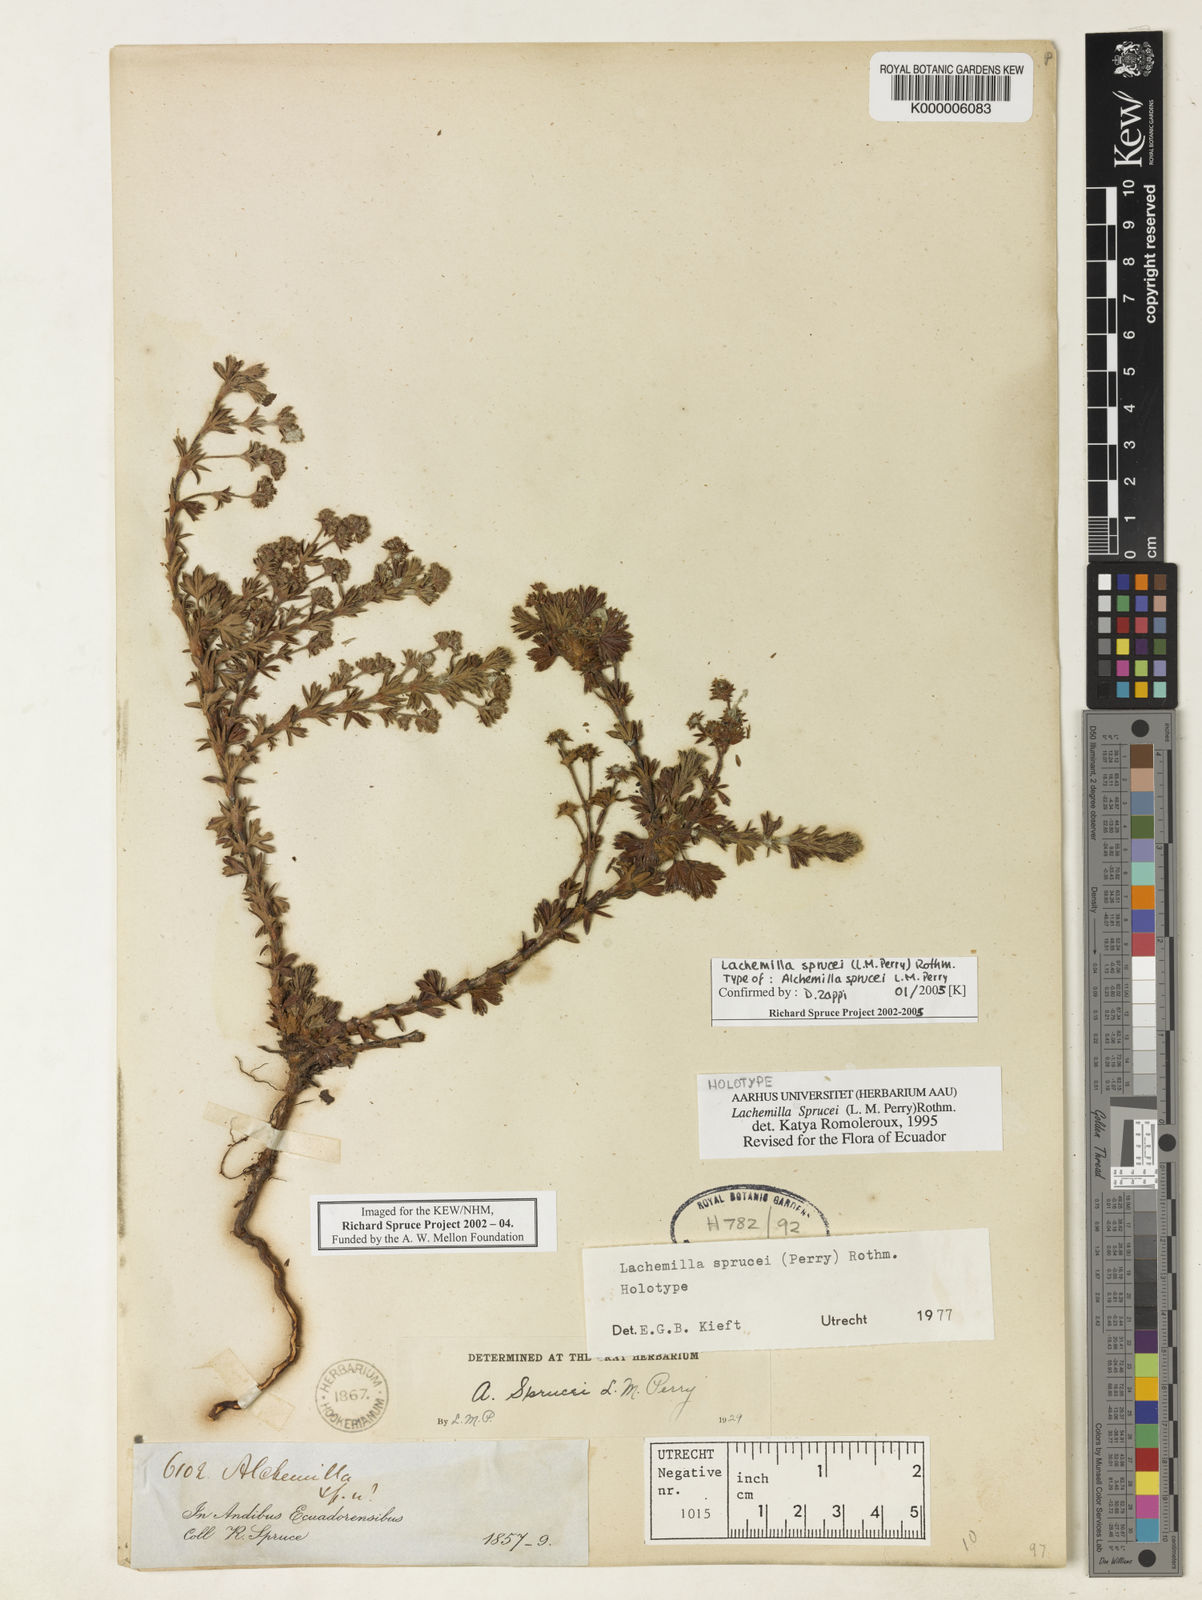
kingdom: Plantae
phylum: Tracheophyta
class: Magnoliopsida
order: Rosales
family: Rosaceae
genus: Lachemilla
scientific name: Lachemilla sibbaldiifolia
